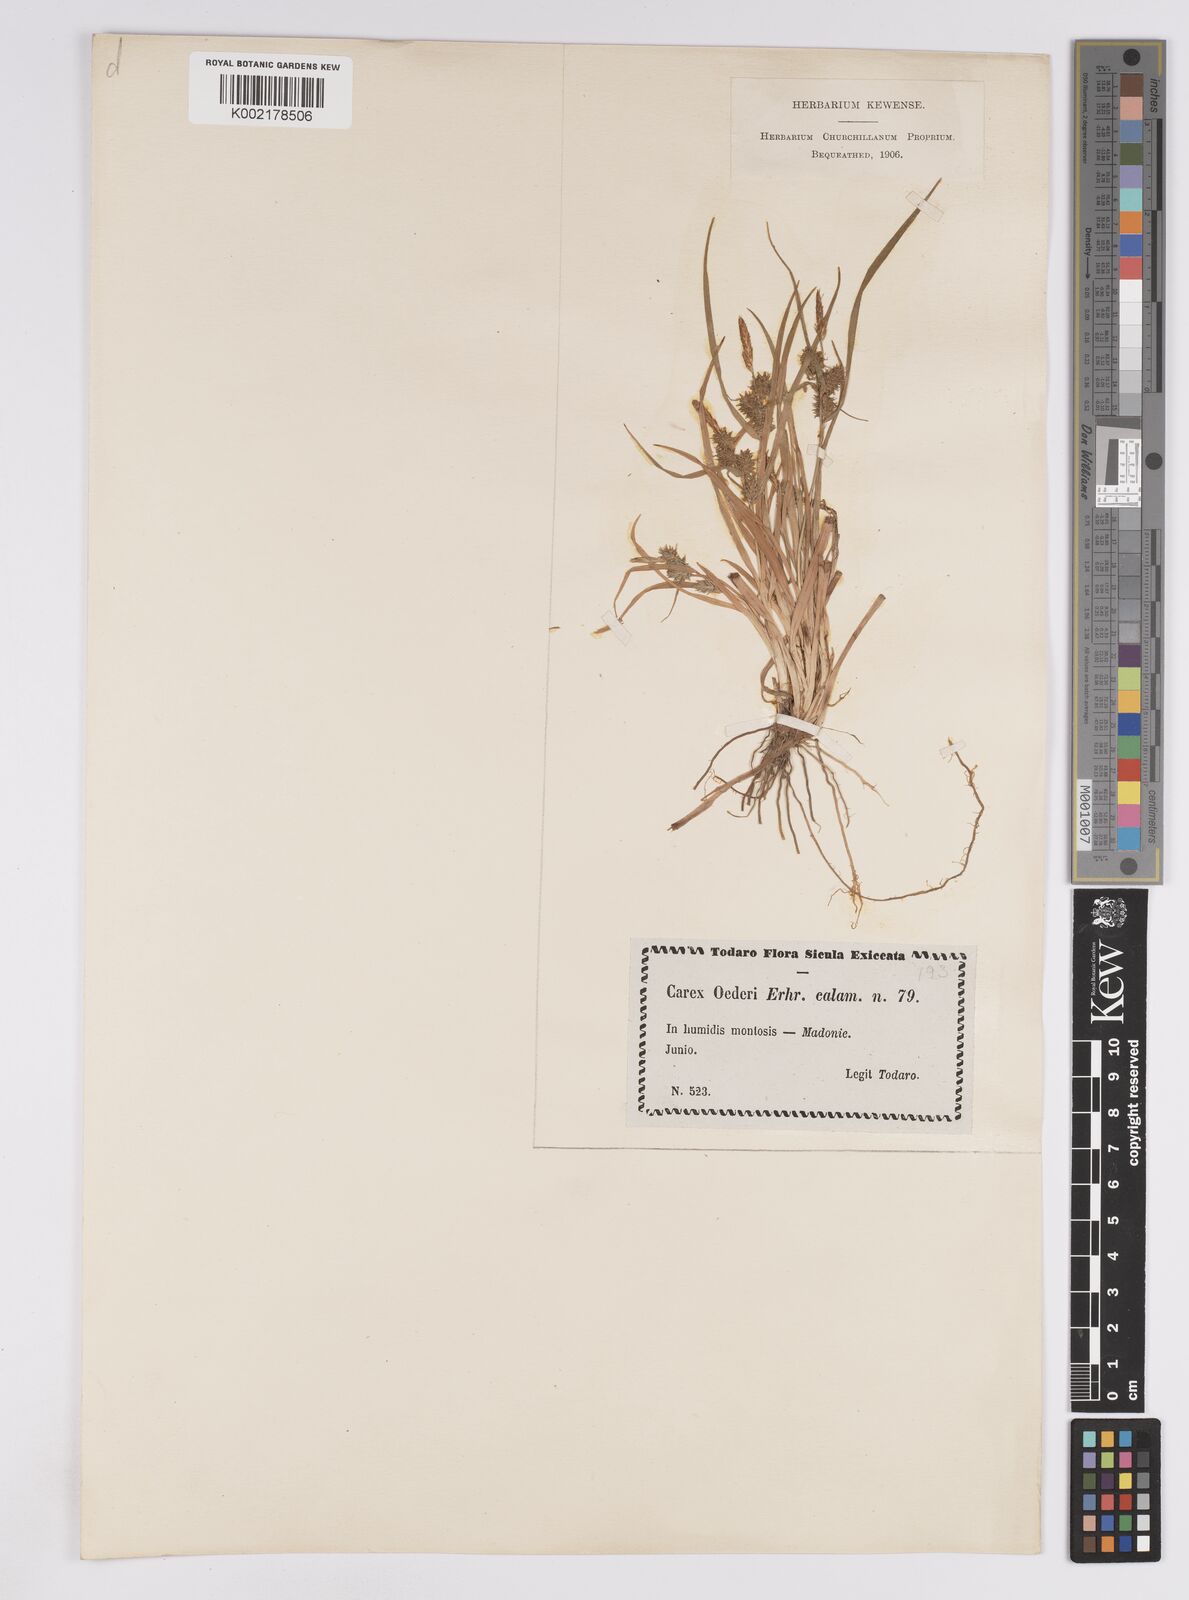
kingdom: Plantae
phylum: Tracheophyta
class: Liliopsida
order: Poales
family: Cyperaceae
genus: Carex
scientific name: Carex demissa
